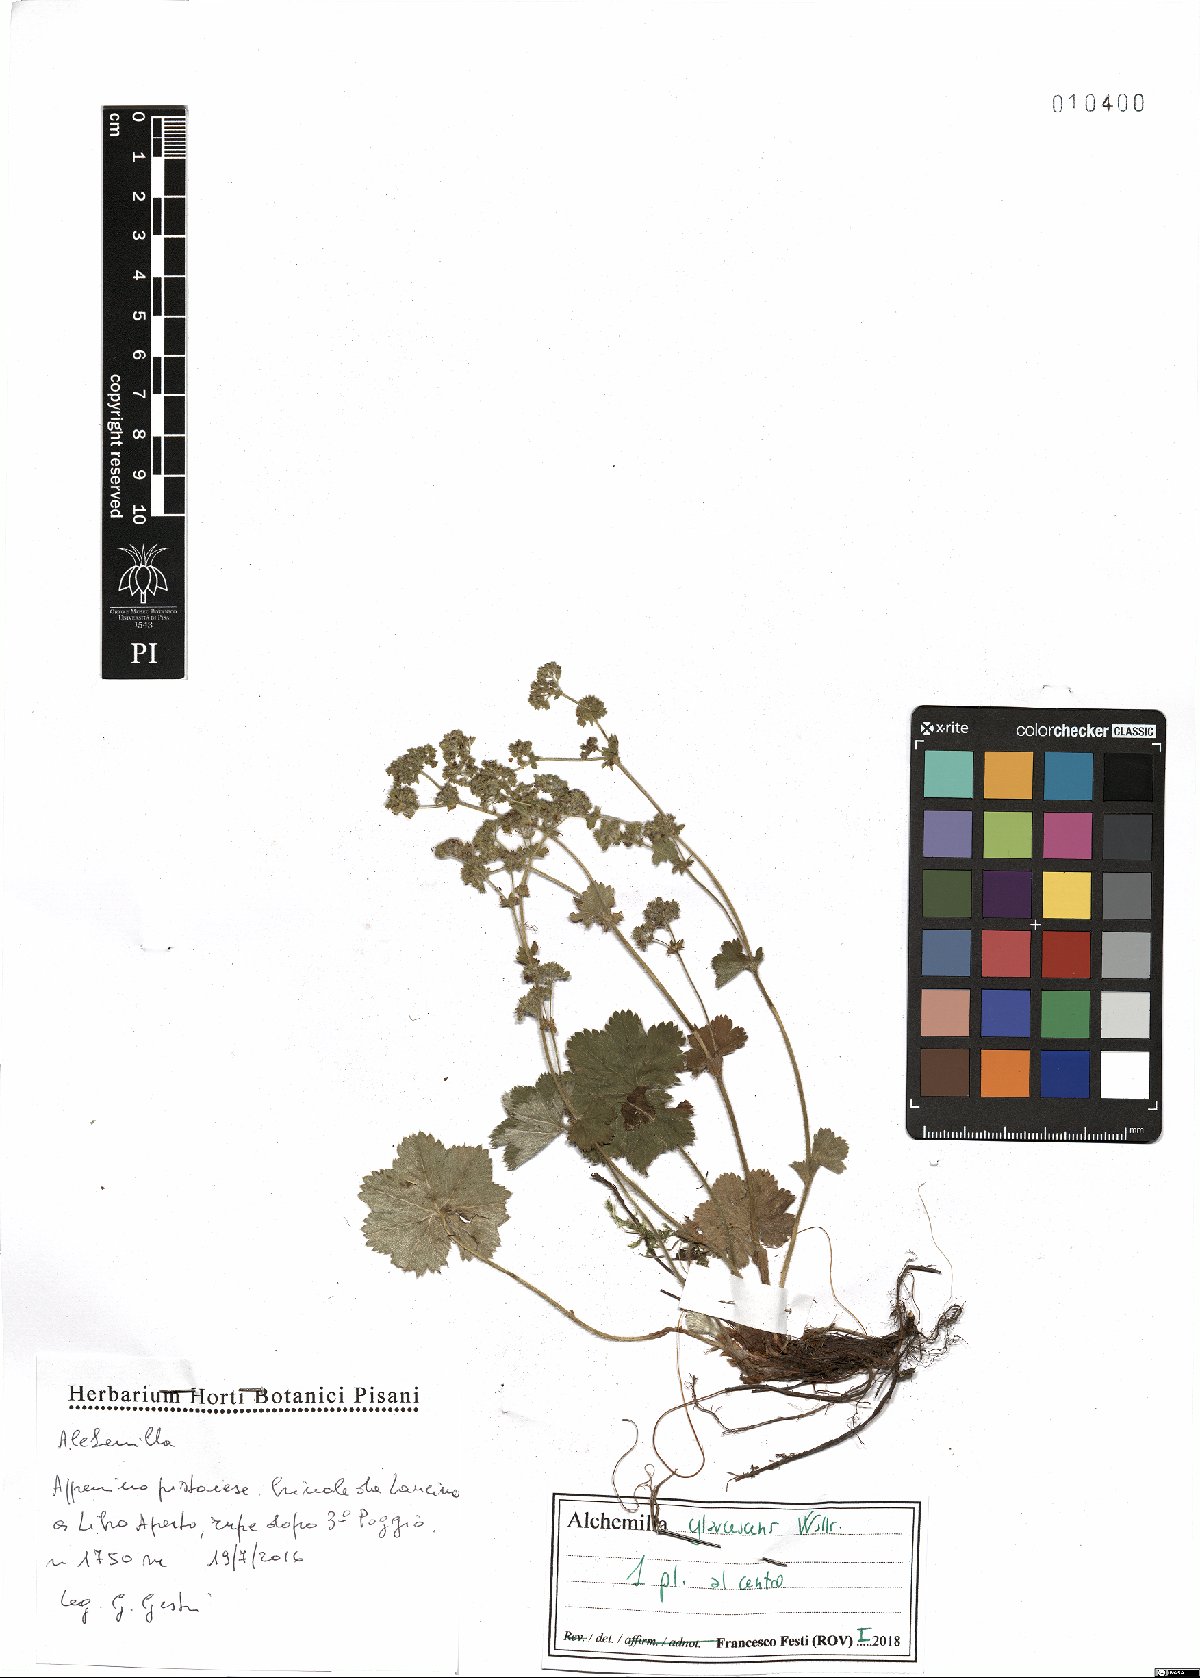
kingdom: Plantae
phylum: Tracheophyta
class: Magnoliopsida
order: Rosales
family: Rosaceae
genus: Alchemilla
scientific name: Alchemilla glaucescens
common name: Silky lady's mantle
